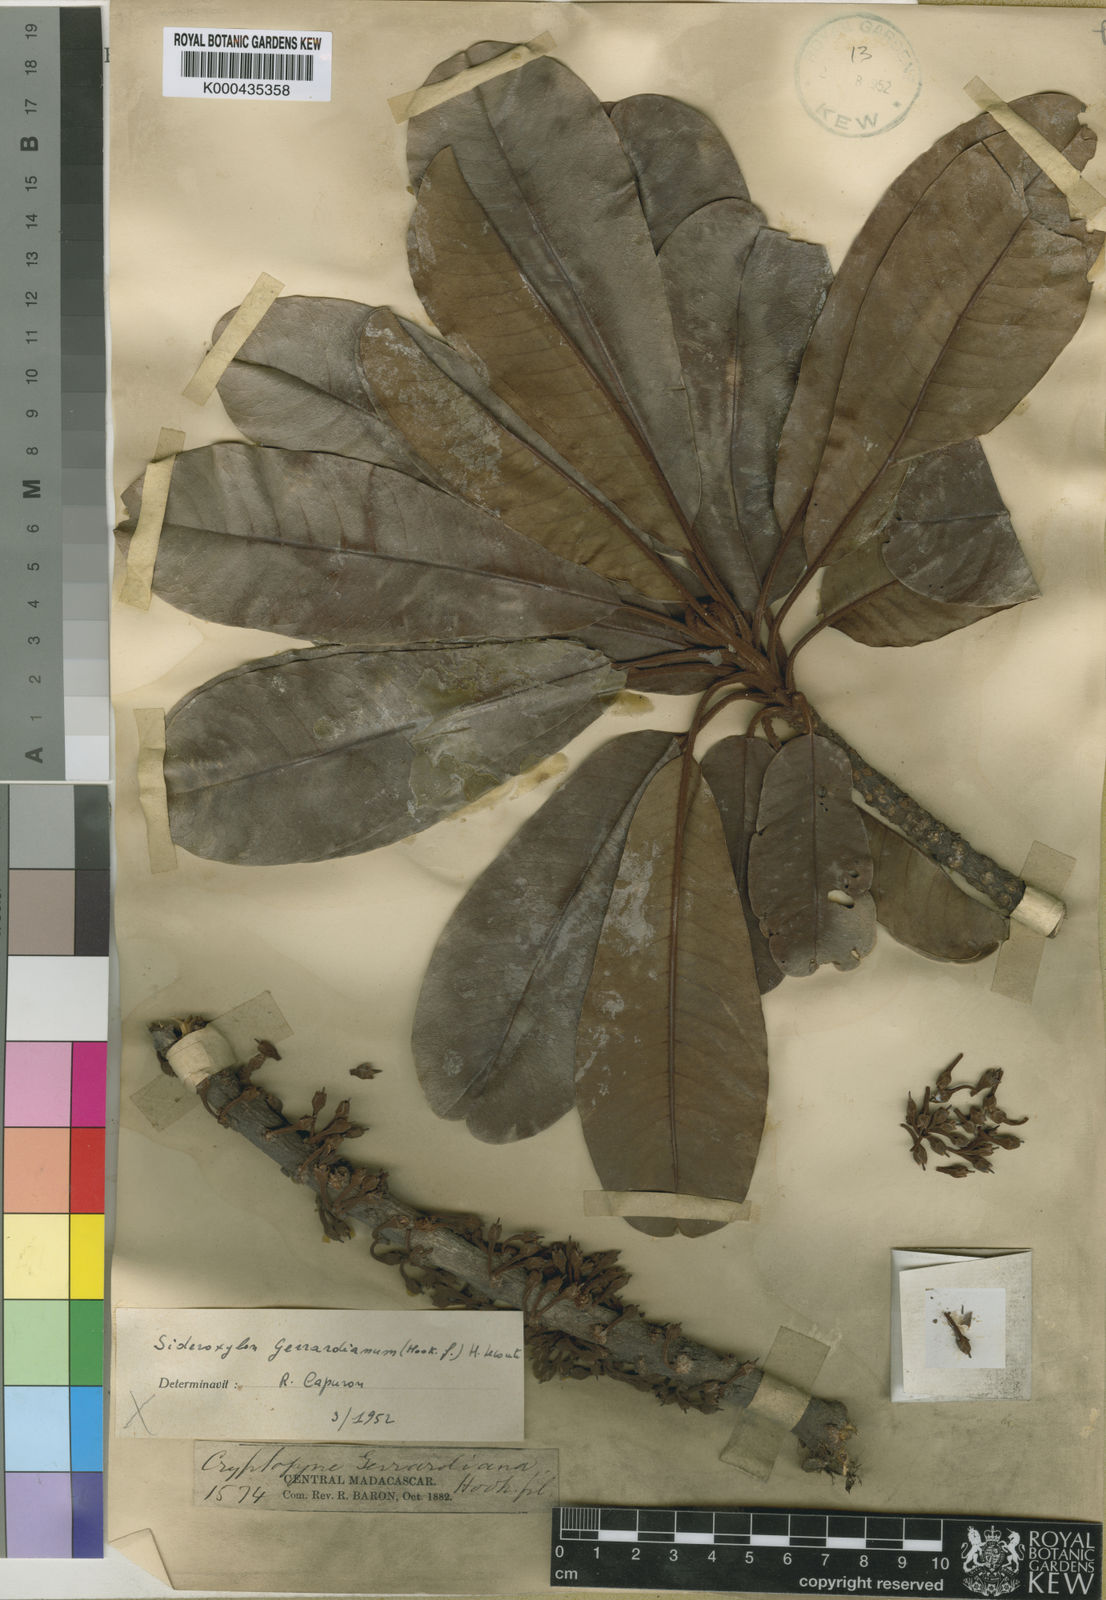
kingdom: Plantae
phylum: Tracheophyta
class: Magnoliopsida
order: Ericales
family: Sapotaceae
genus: Sideroxylon
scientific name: Sideroxylon
